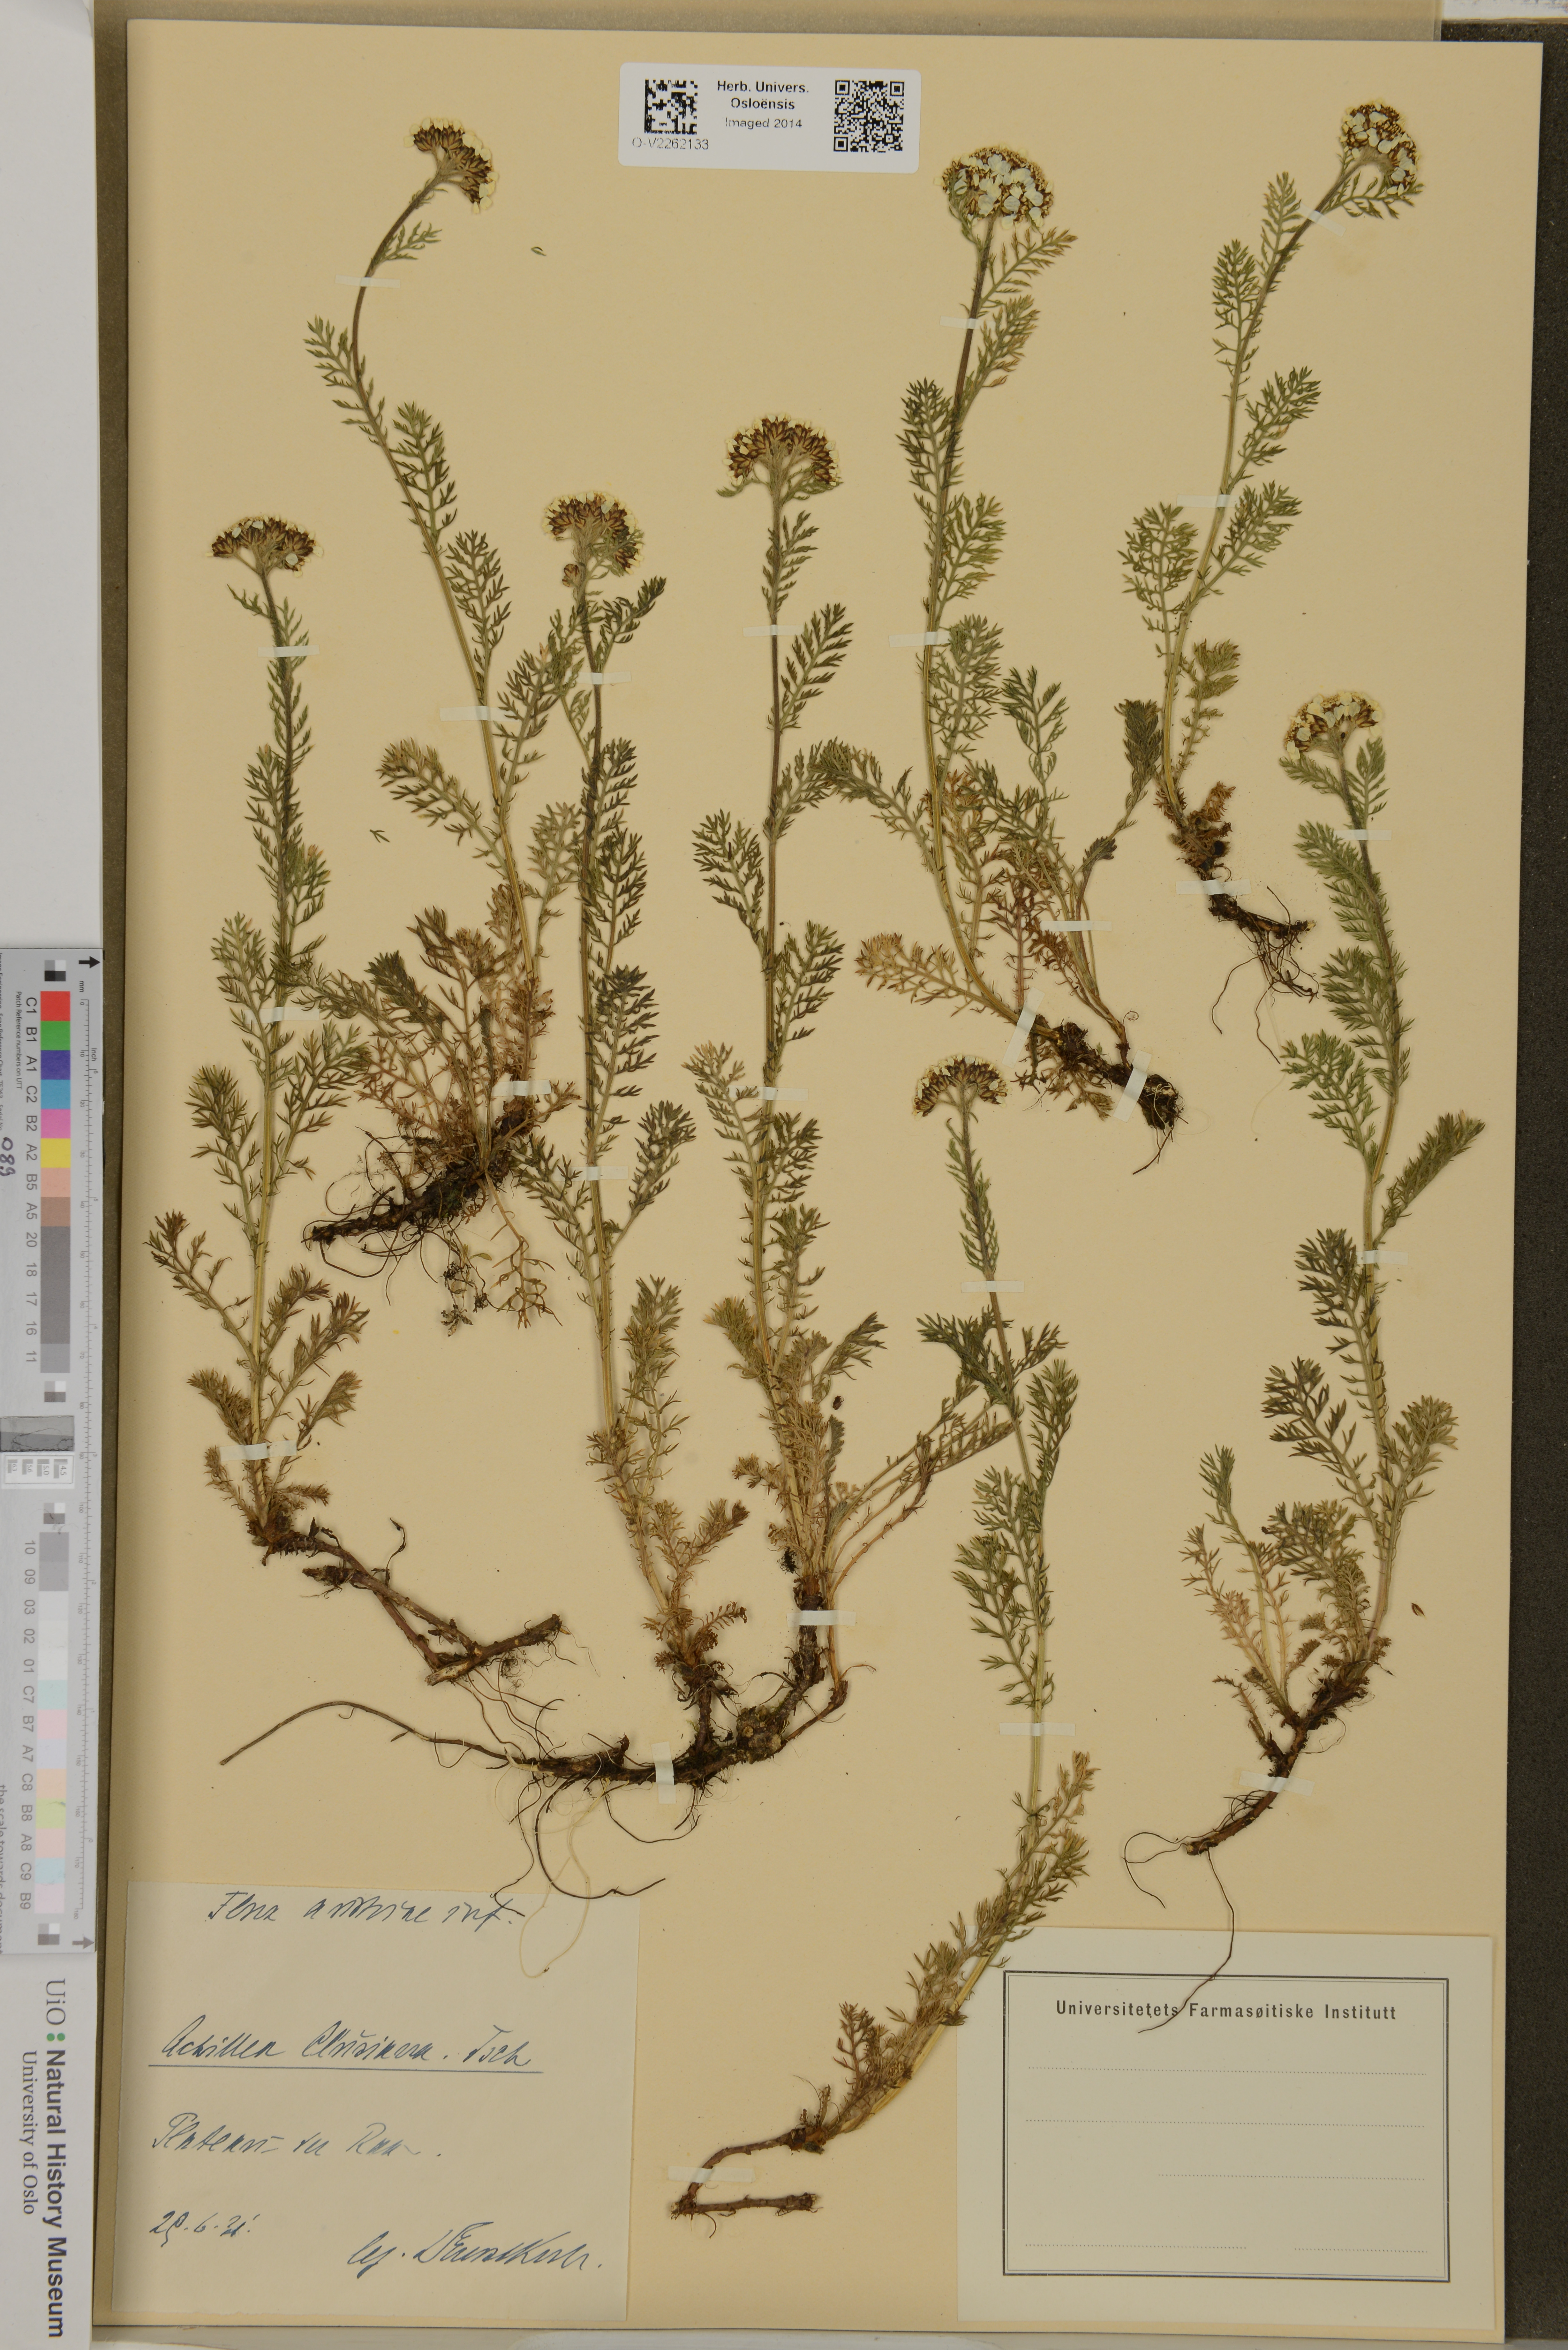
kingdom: Plantae
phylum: Tracheophyta
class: Magnoliopsida
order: Asterales
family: Asteraceae
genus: Achillea
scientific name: Achillea clusiana
